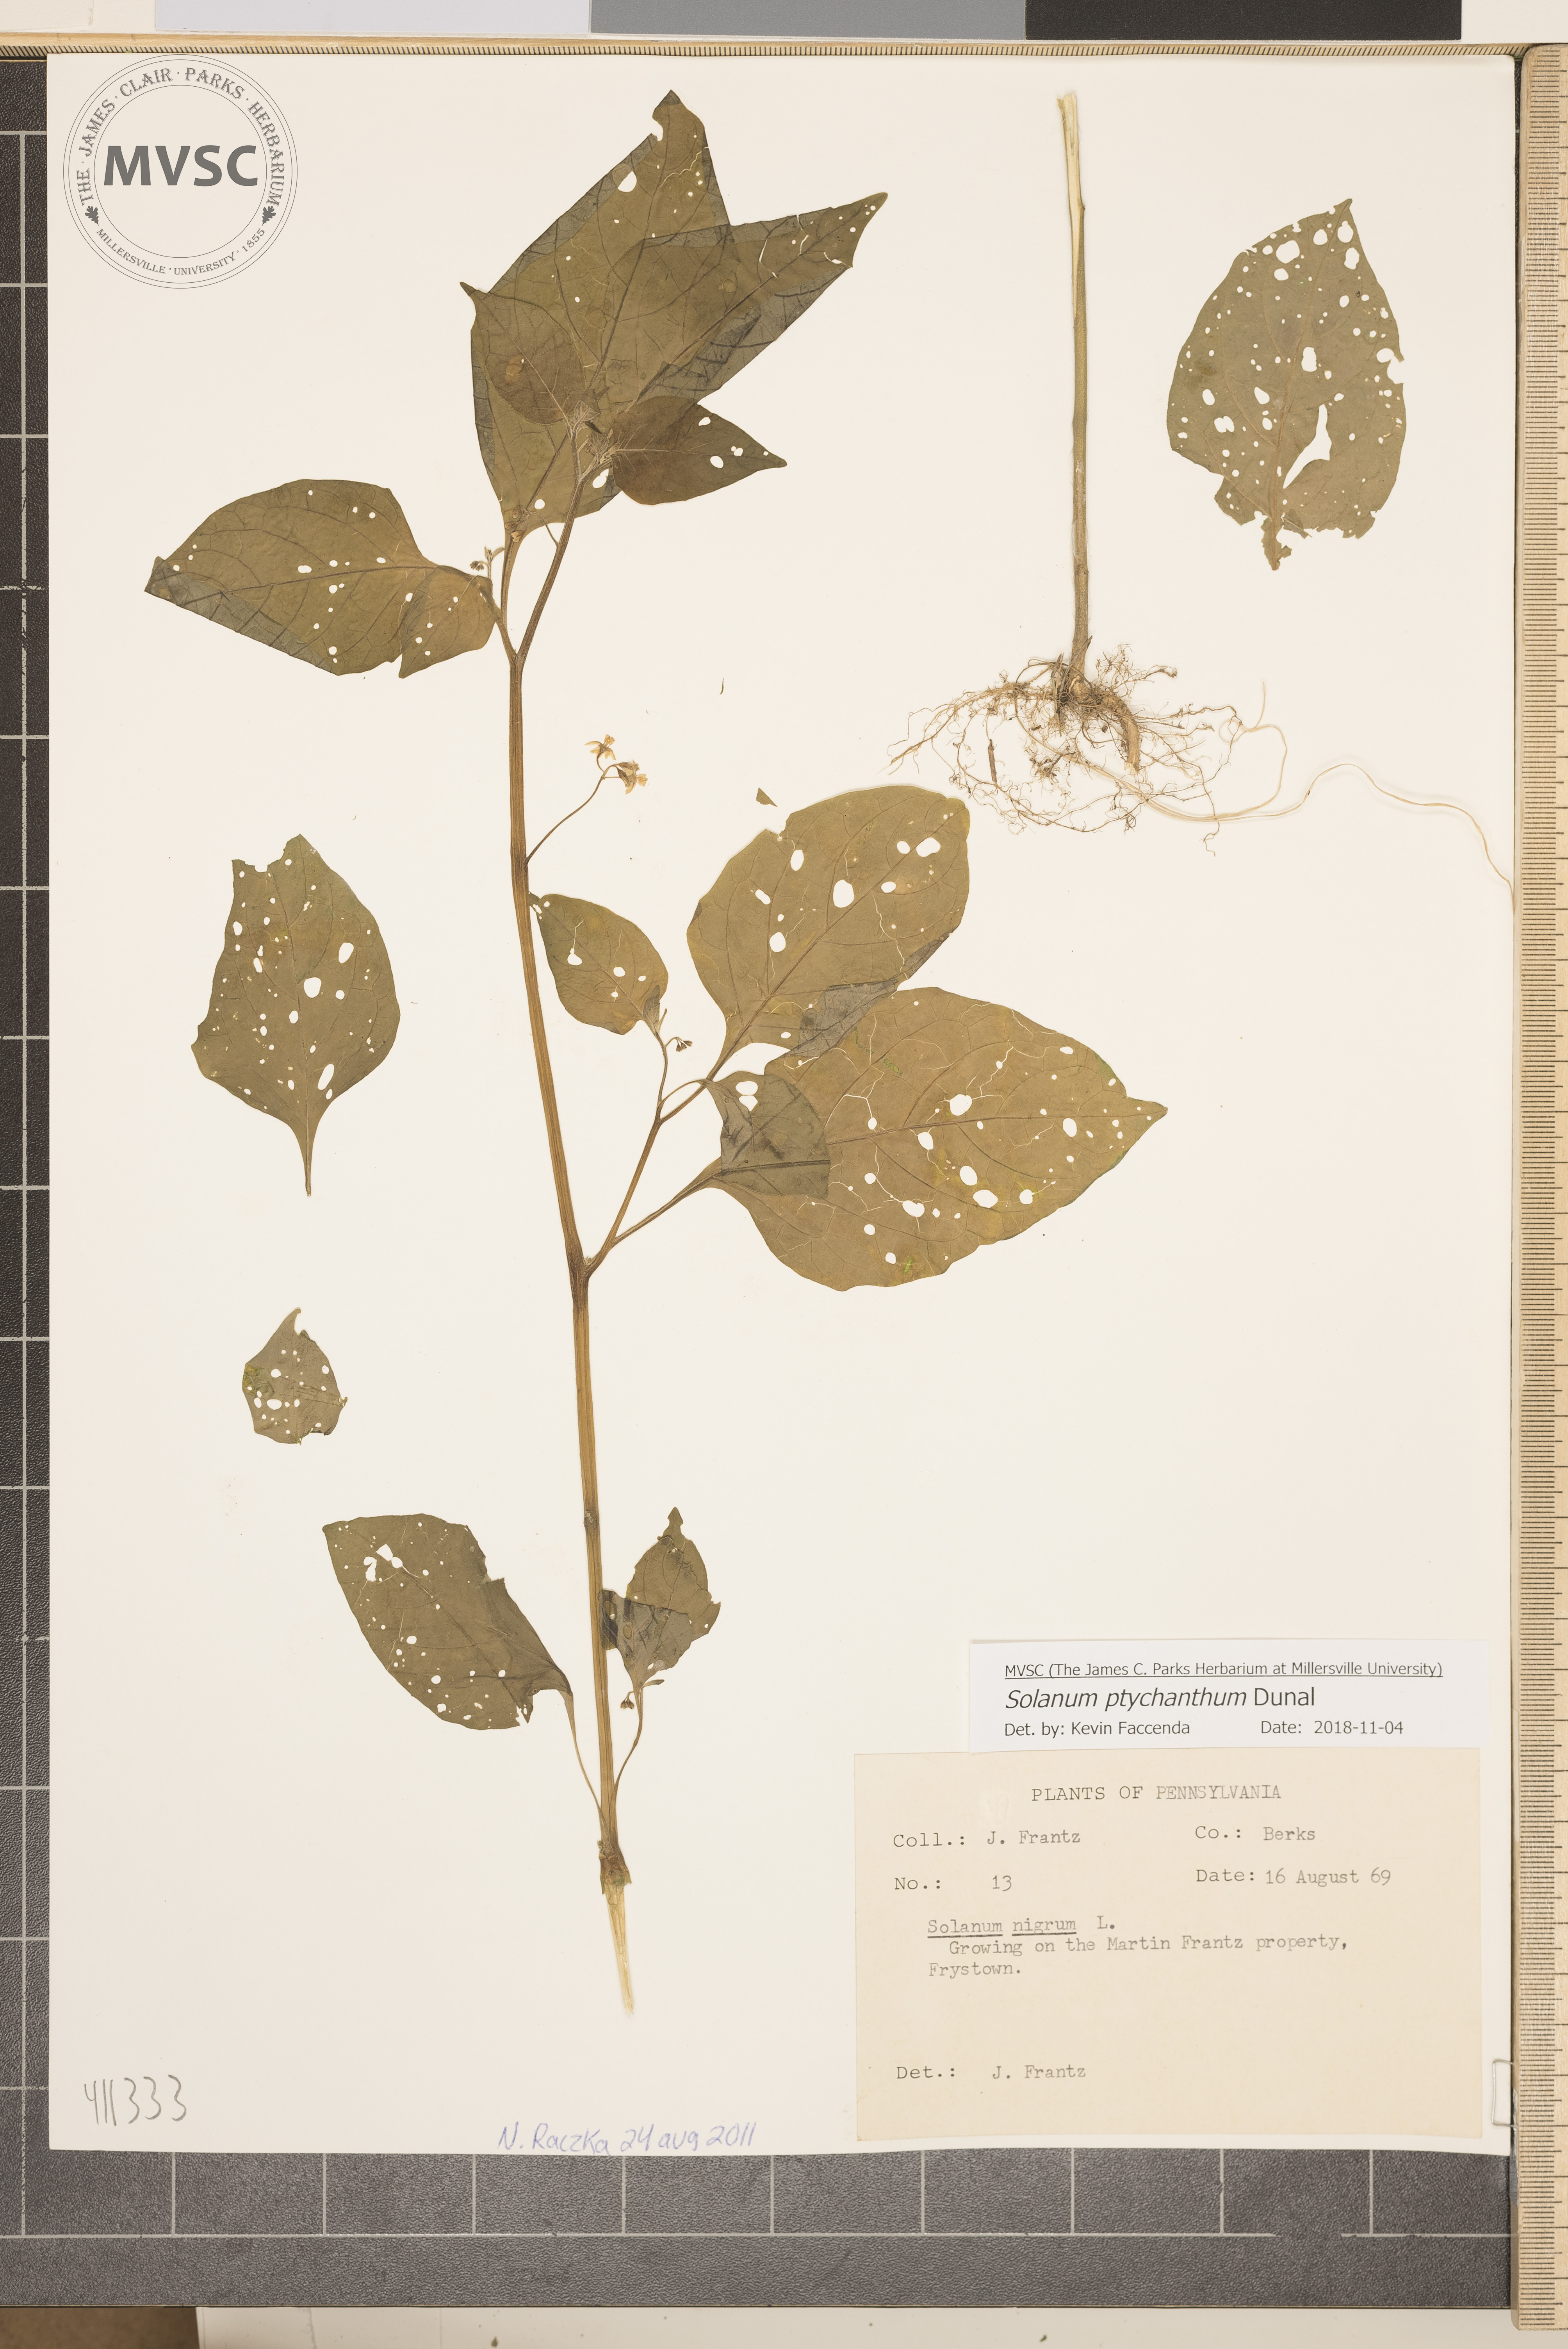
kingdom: Plantae
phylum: Tracheophyta
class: Magnoliopsida
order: Solanales
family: Solanaceae
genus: Solanum
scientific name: Solanum americanum
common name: Black nightshade
